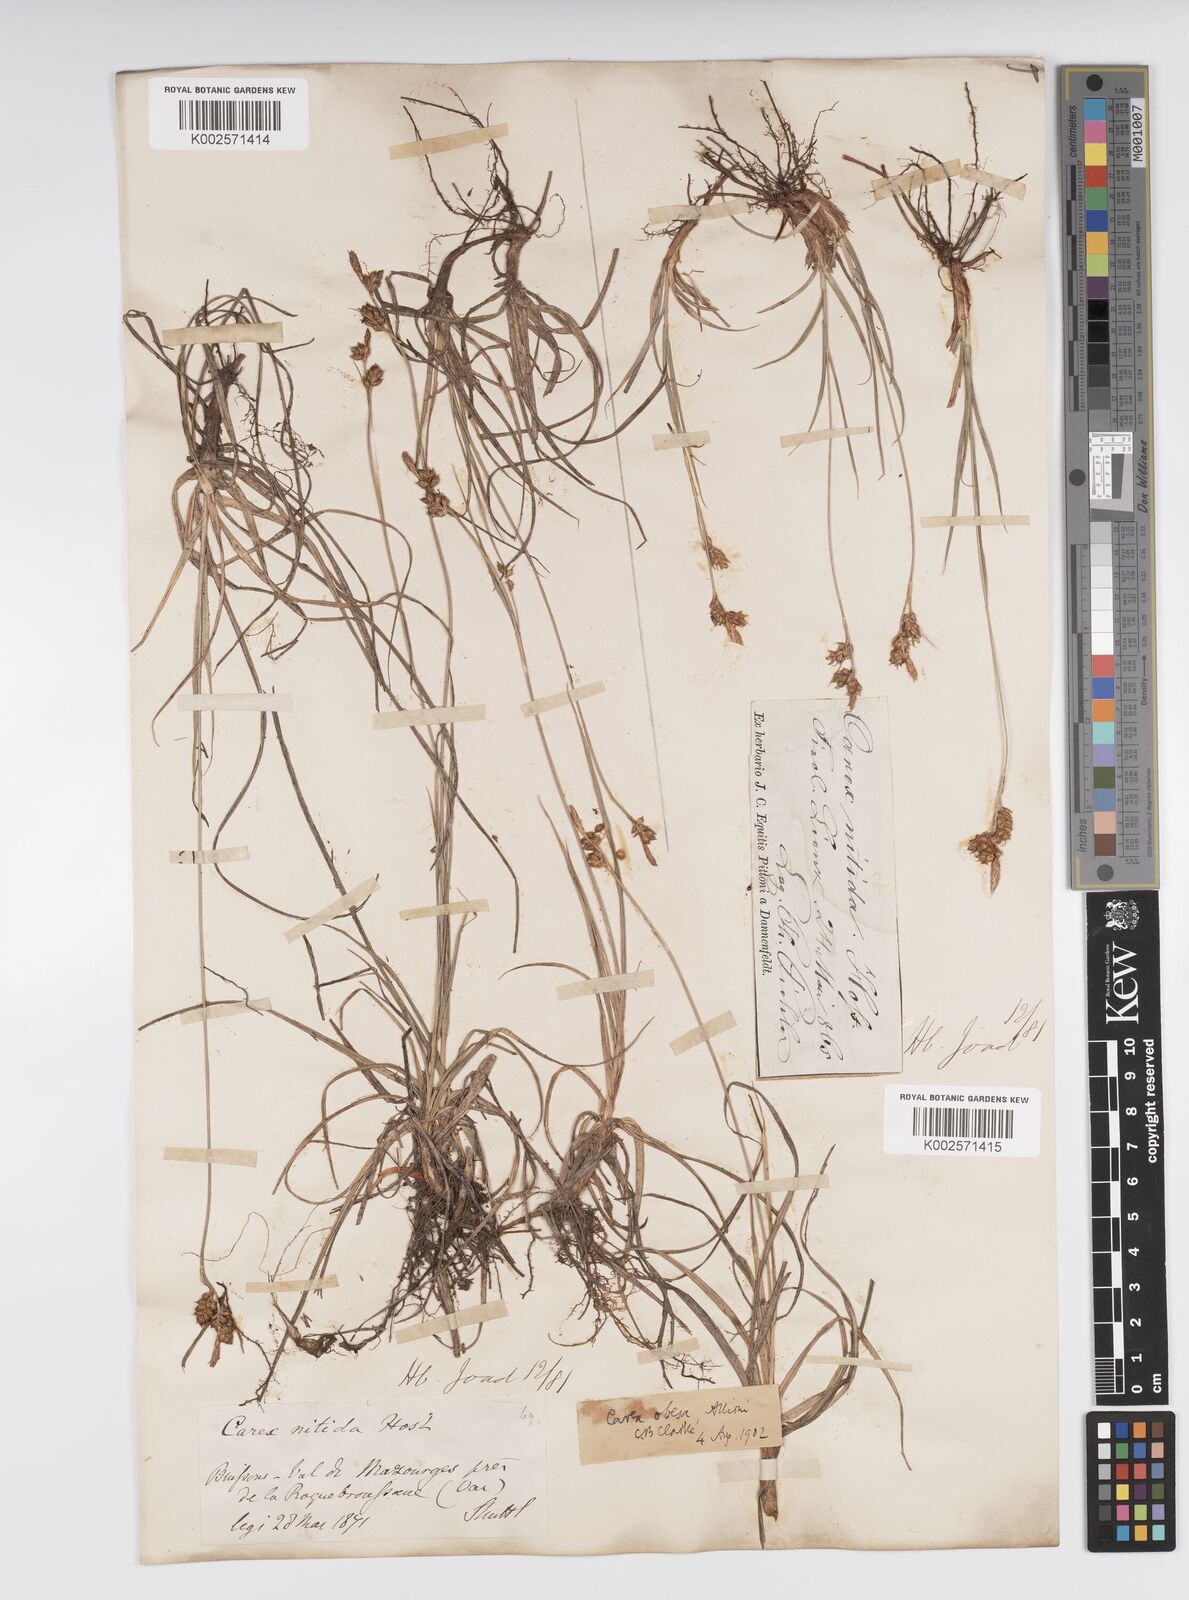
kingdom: Plantae
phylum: Tracheophyta
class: Liliopsida
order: Poales
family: Cyperaceae
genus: Carex
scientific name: Carex liparocarpos
